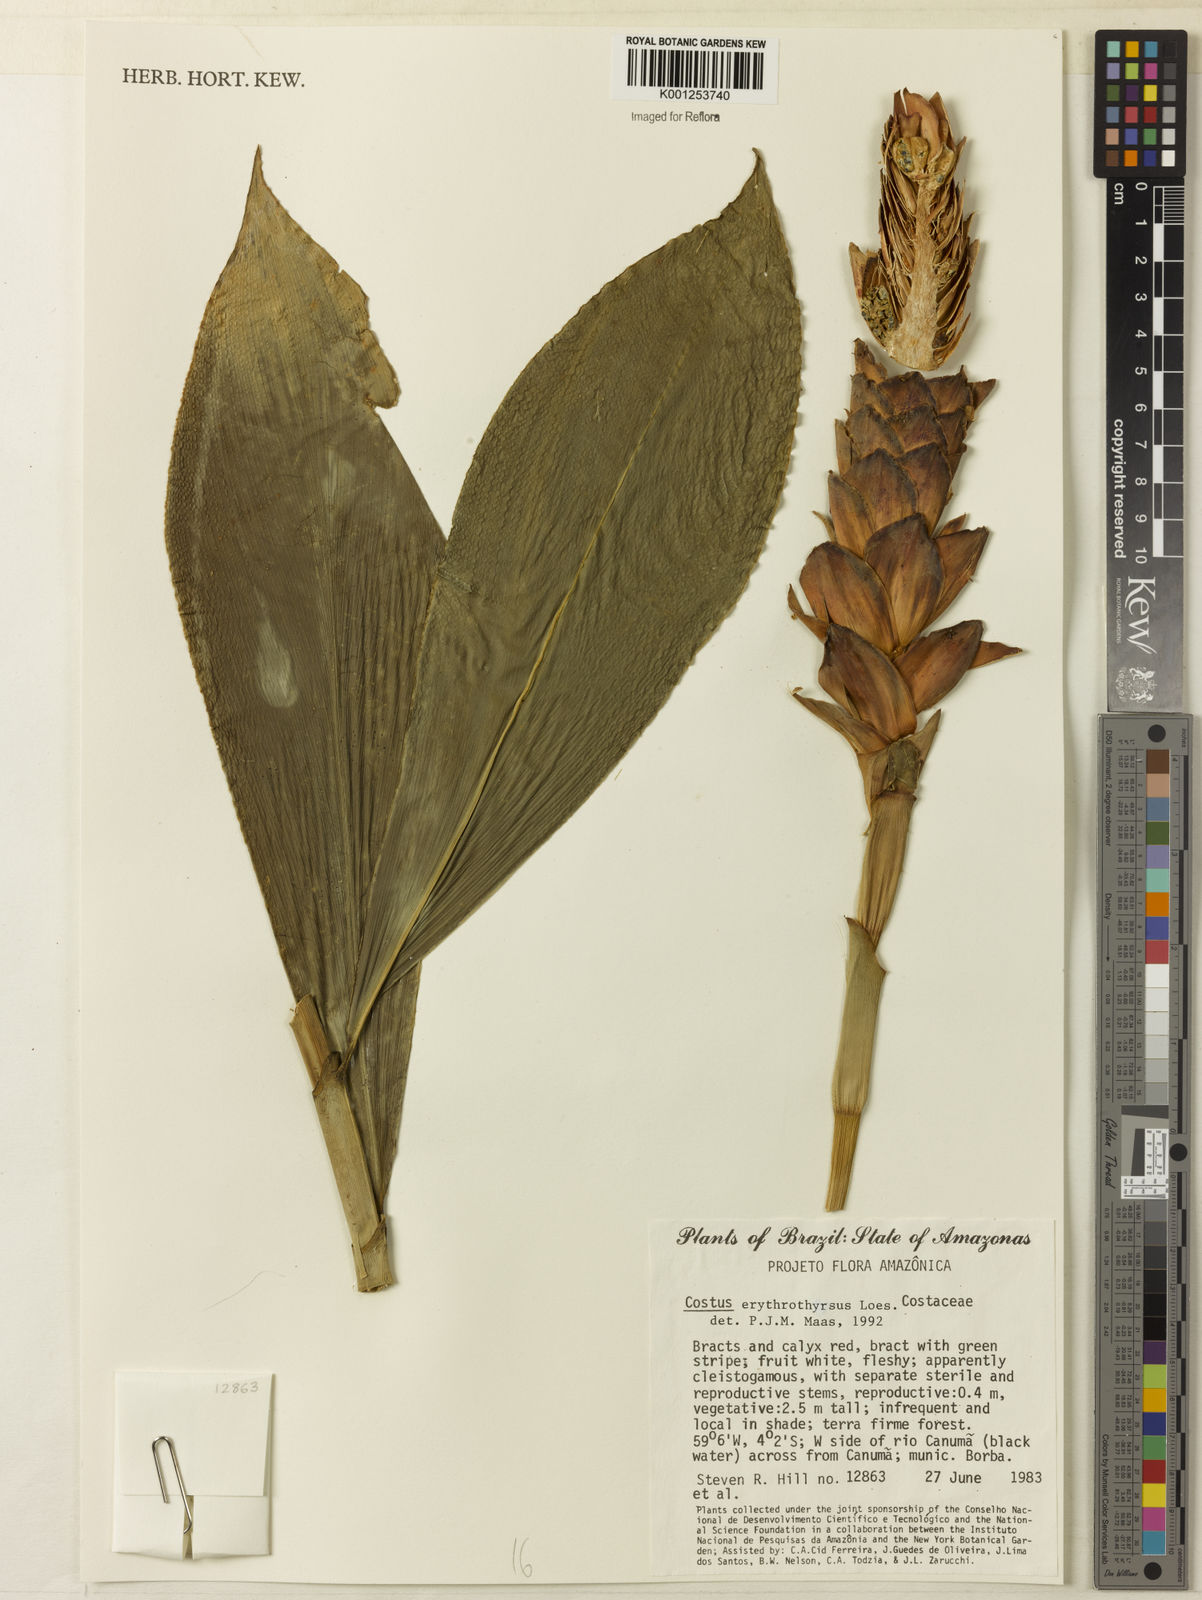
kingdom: Plantae
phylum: Tracheophyta
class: Liliopsida
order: Zingiberales
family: Costaceae
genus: Costus
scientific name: Costus erythrothyrsus
